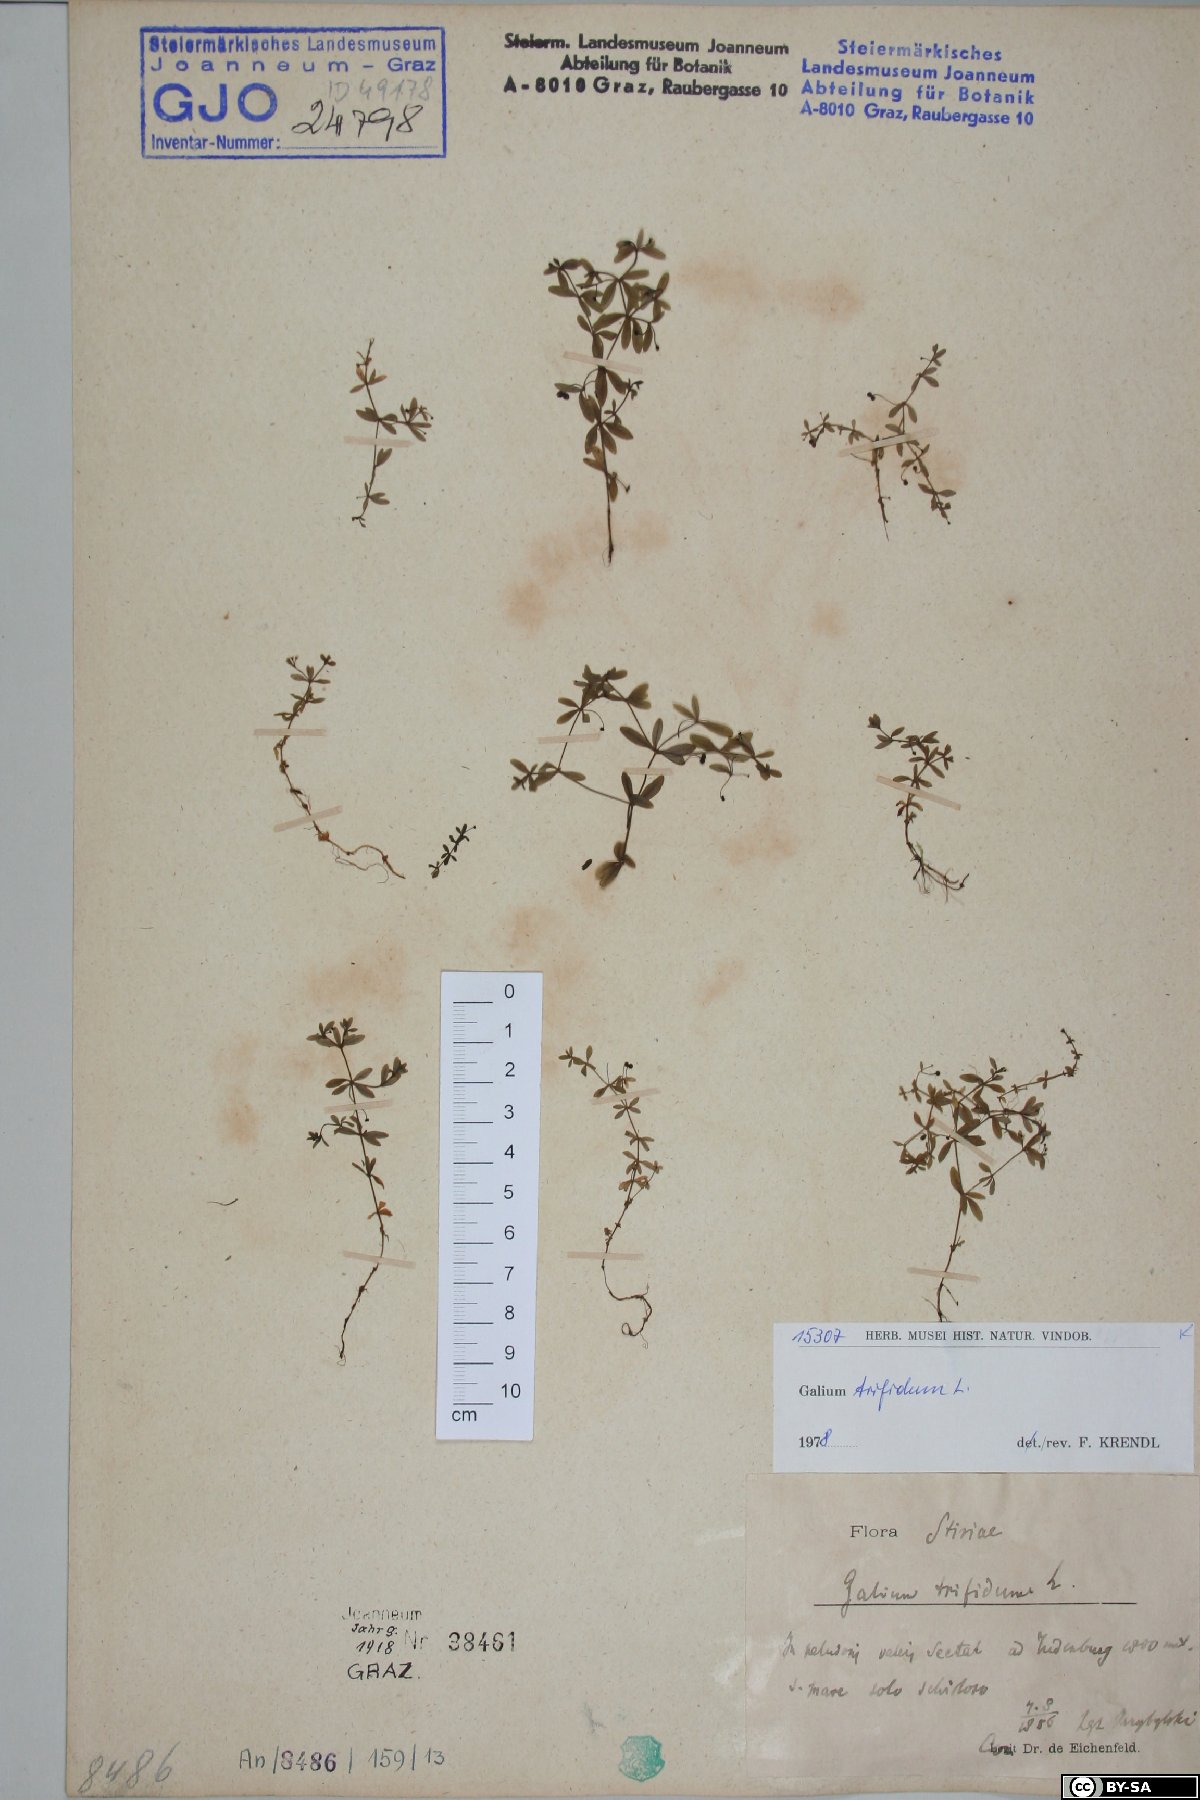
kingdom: Plantae
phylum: Tracheophyta
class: Magnoliopsida
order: Gentianales
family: Rubiaceae
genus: Galium
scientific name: Galium trifidum
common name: Small bedstraw
